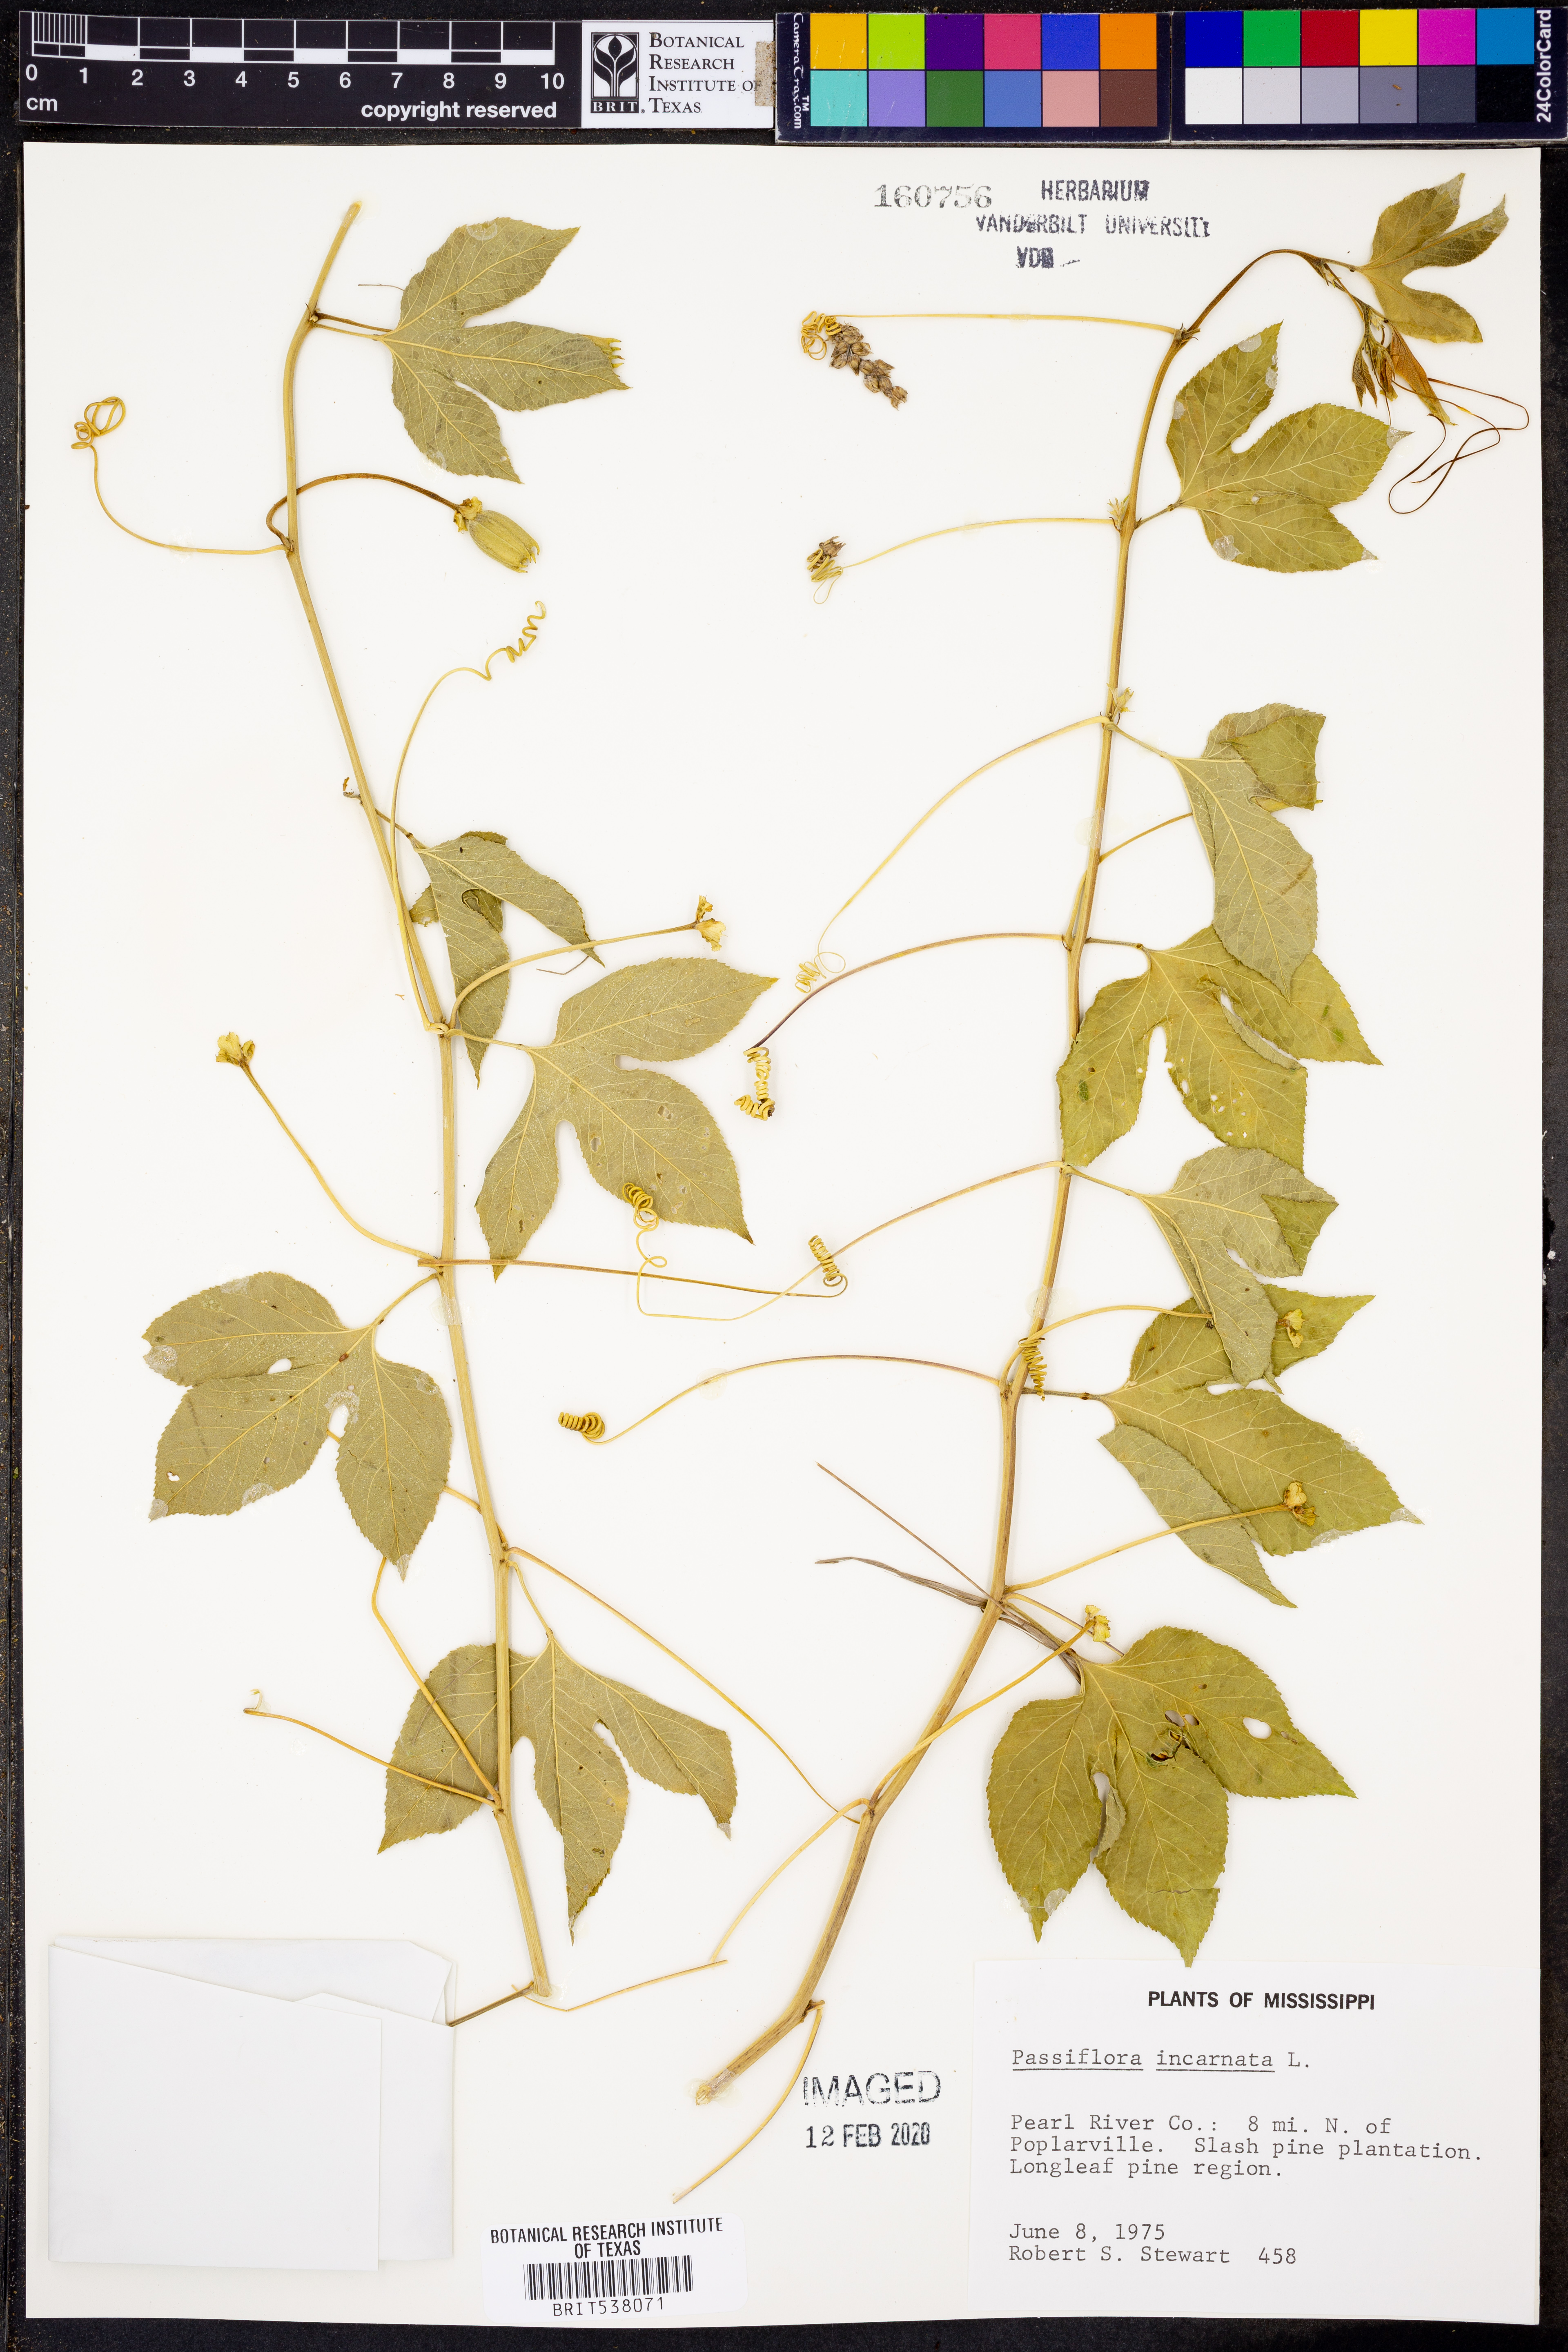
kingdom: Plantae
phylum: Tracheophyta
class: Magnoliopsida
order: Malpighiales
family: Passifloraceae
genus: Passiflora
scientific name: Passiflora incarnata
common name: Apricot-vine
